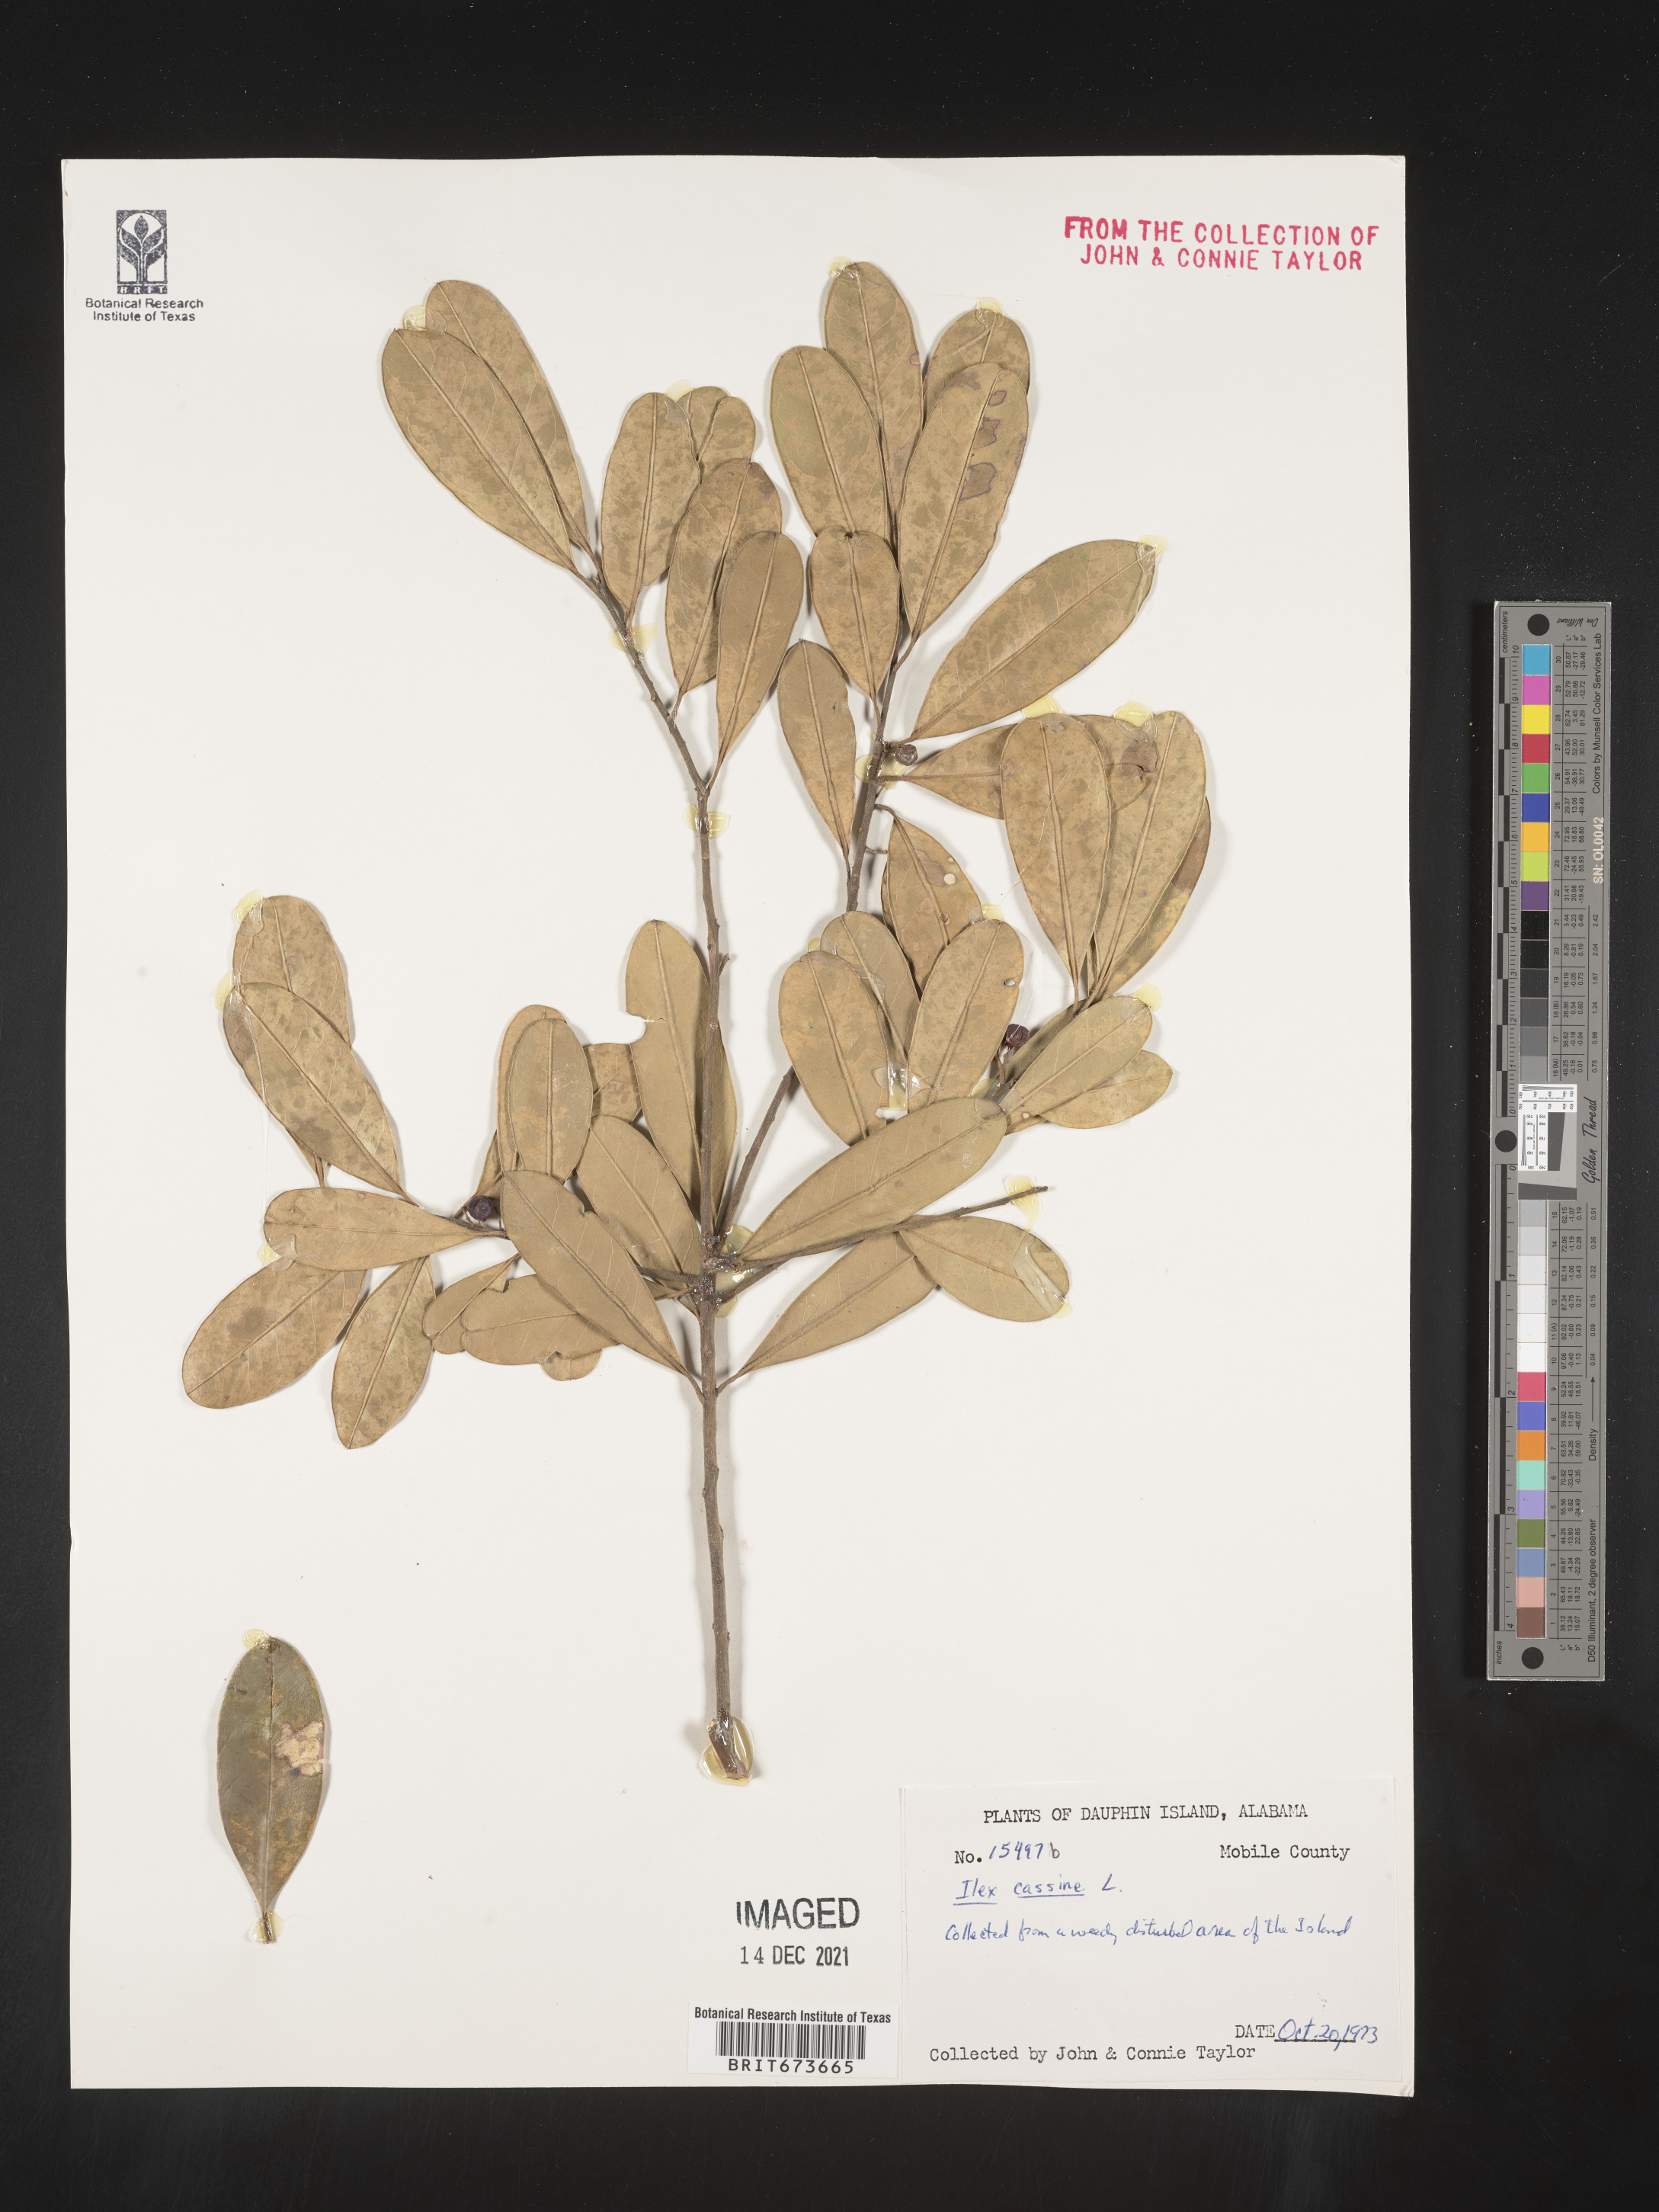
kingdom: Plantae
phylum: Tracheophyta
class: Magnoliopsida
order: Aquifoliales
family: Aquifoliaceae
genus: Ilex
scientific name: Ilex cassine
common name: Dahoon
